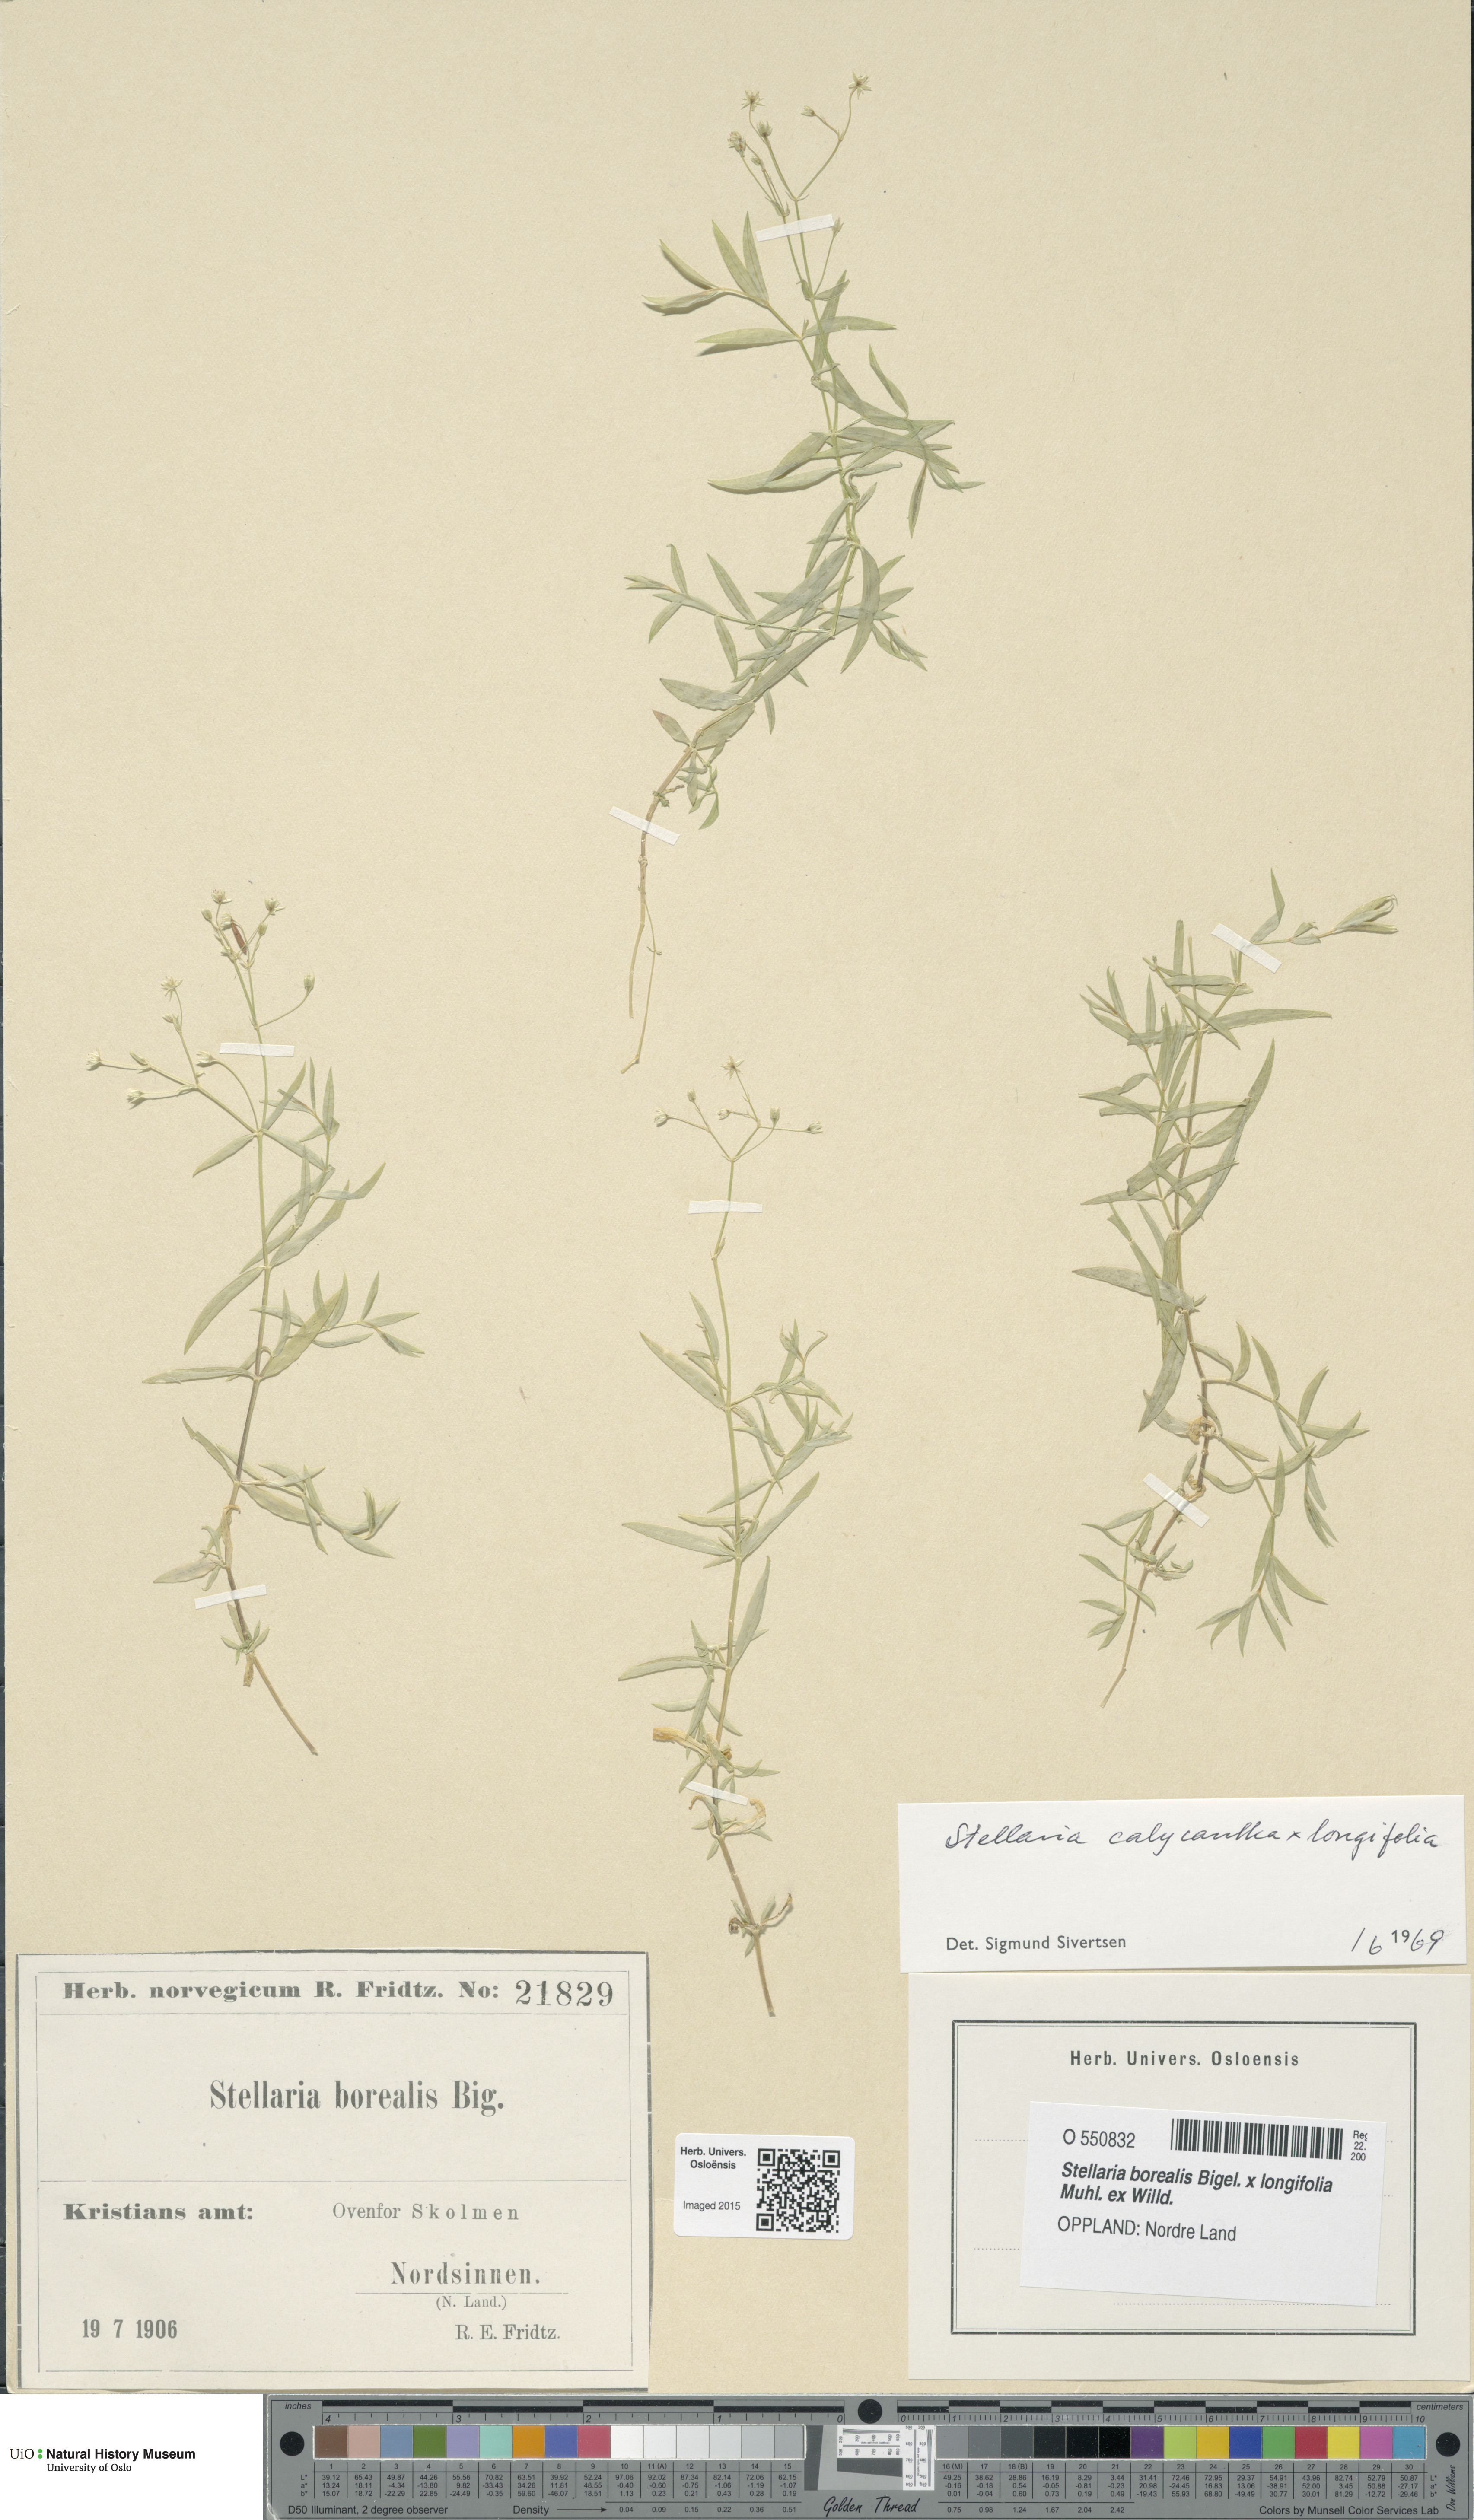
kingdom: Plantae
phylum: Tracheophyta
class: Magnoliopsida
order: Caryophyllales
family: Caryophyllaceae
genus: Stellaria
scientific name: Stellaria
